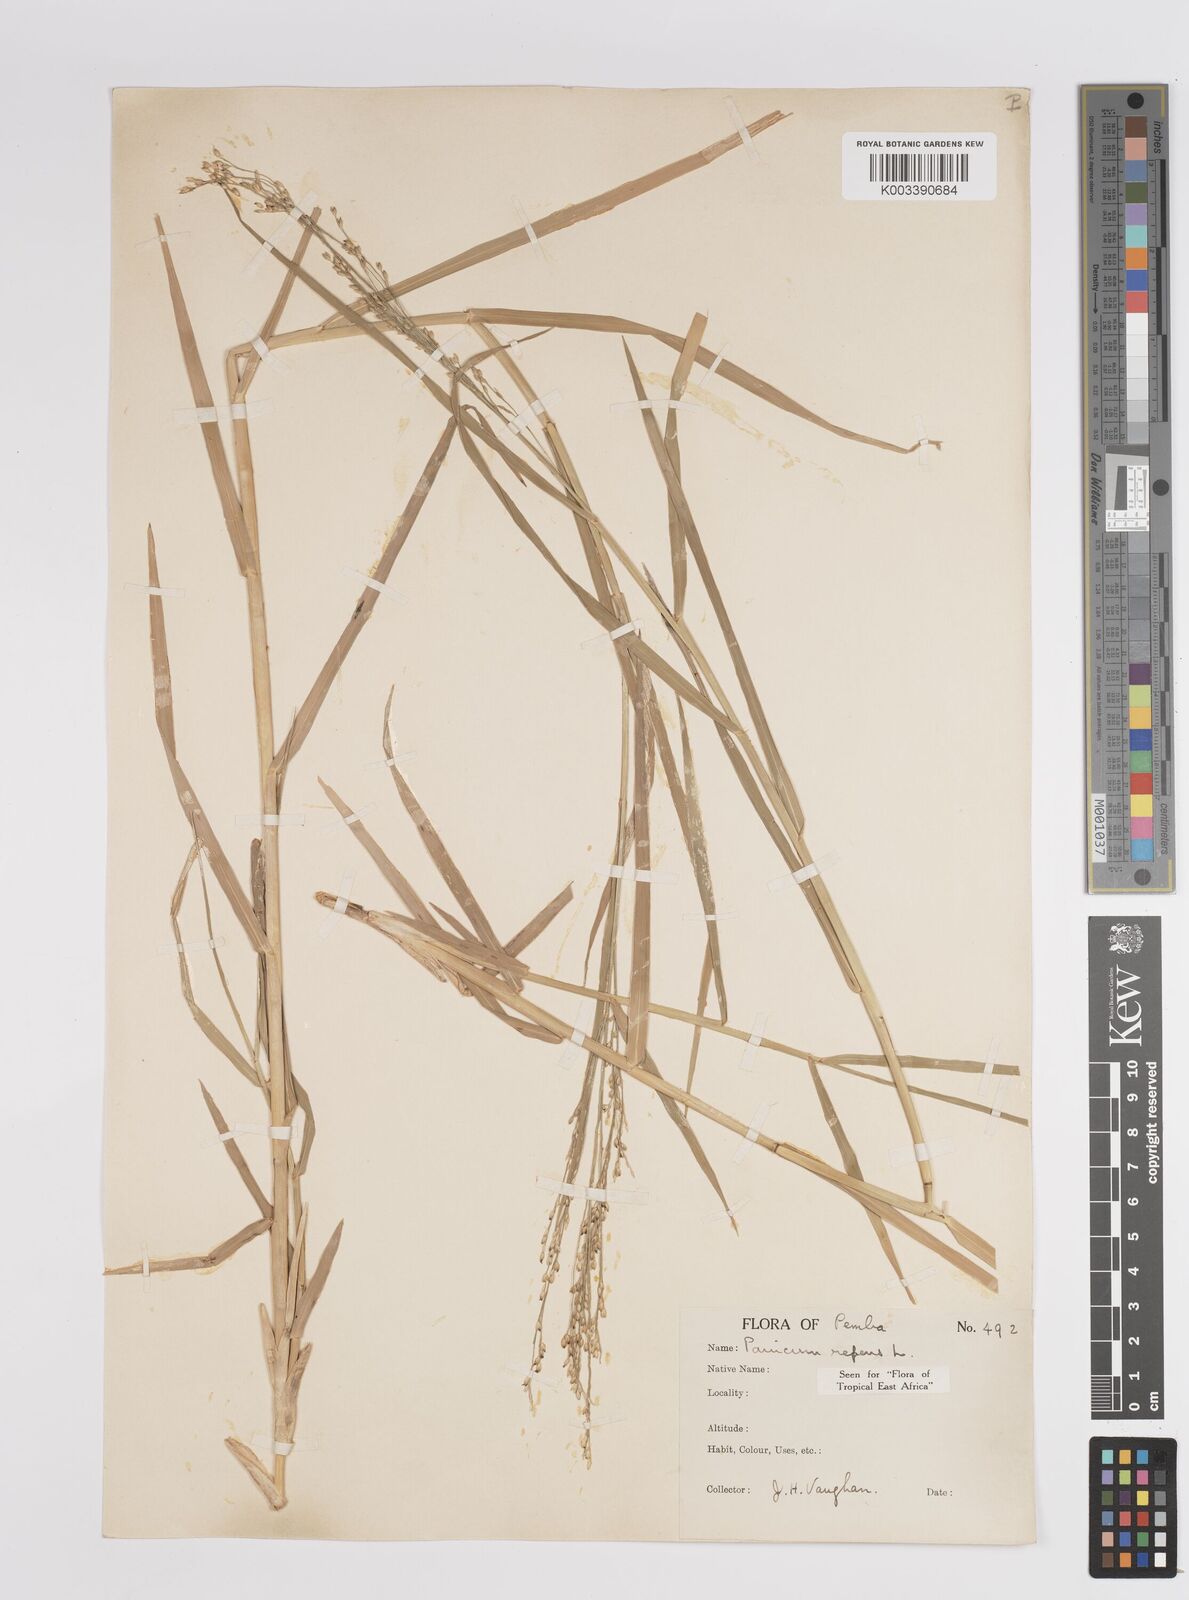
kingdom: Plantae
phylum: Tracheophyta
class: Liliopsida
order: Poales
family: Poaceae
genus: Panicum
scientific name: Panicum repens
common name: Torpedo grass
